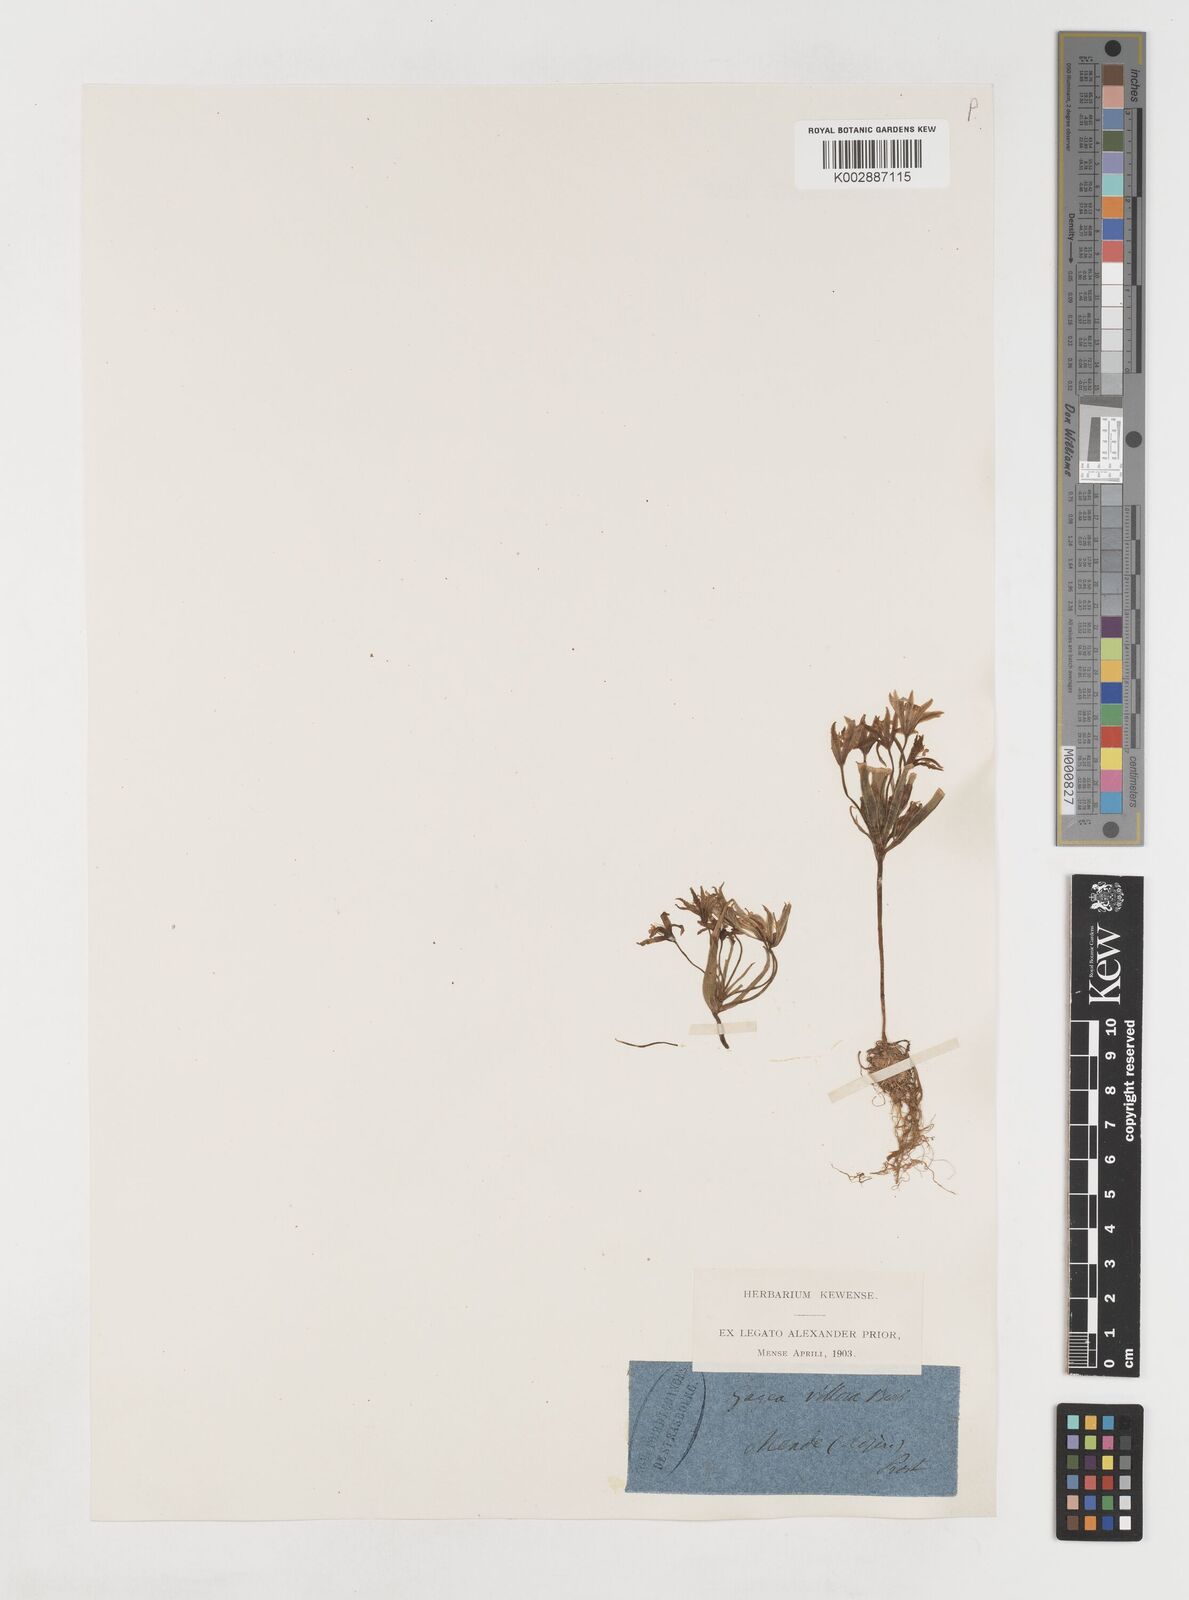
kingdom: Plantae
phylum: Tracheophyta
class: Liliopsida
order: Liliales
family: Liliaceae
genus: Gagea
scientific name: Gagea villosa
